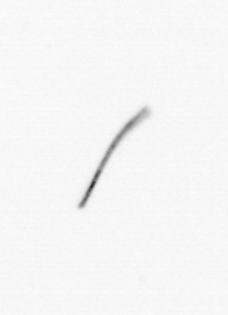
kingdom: Chromista
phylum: Ochrophyta
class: Bacillariophyceae
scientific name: Bacillariophyceae
